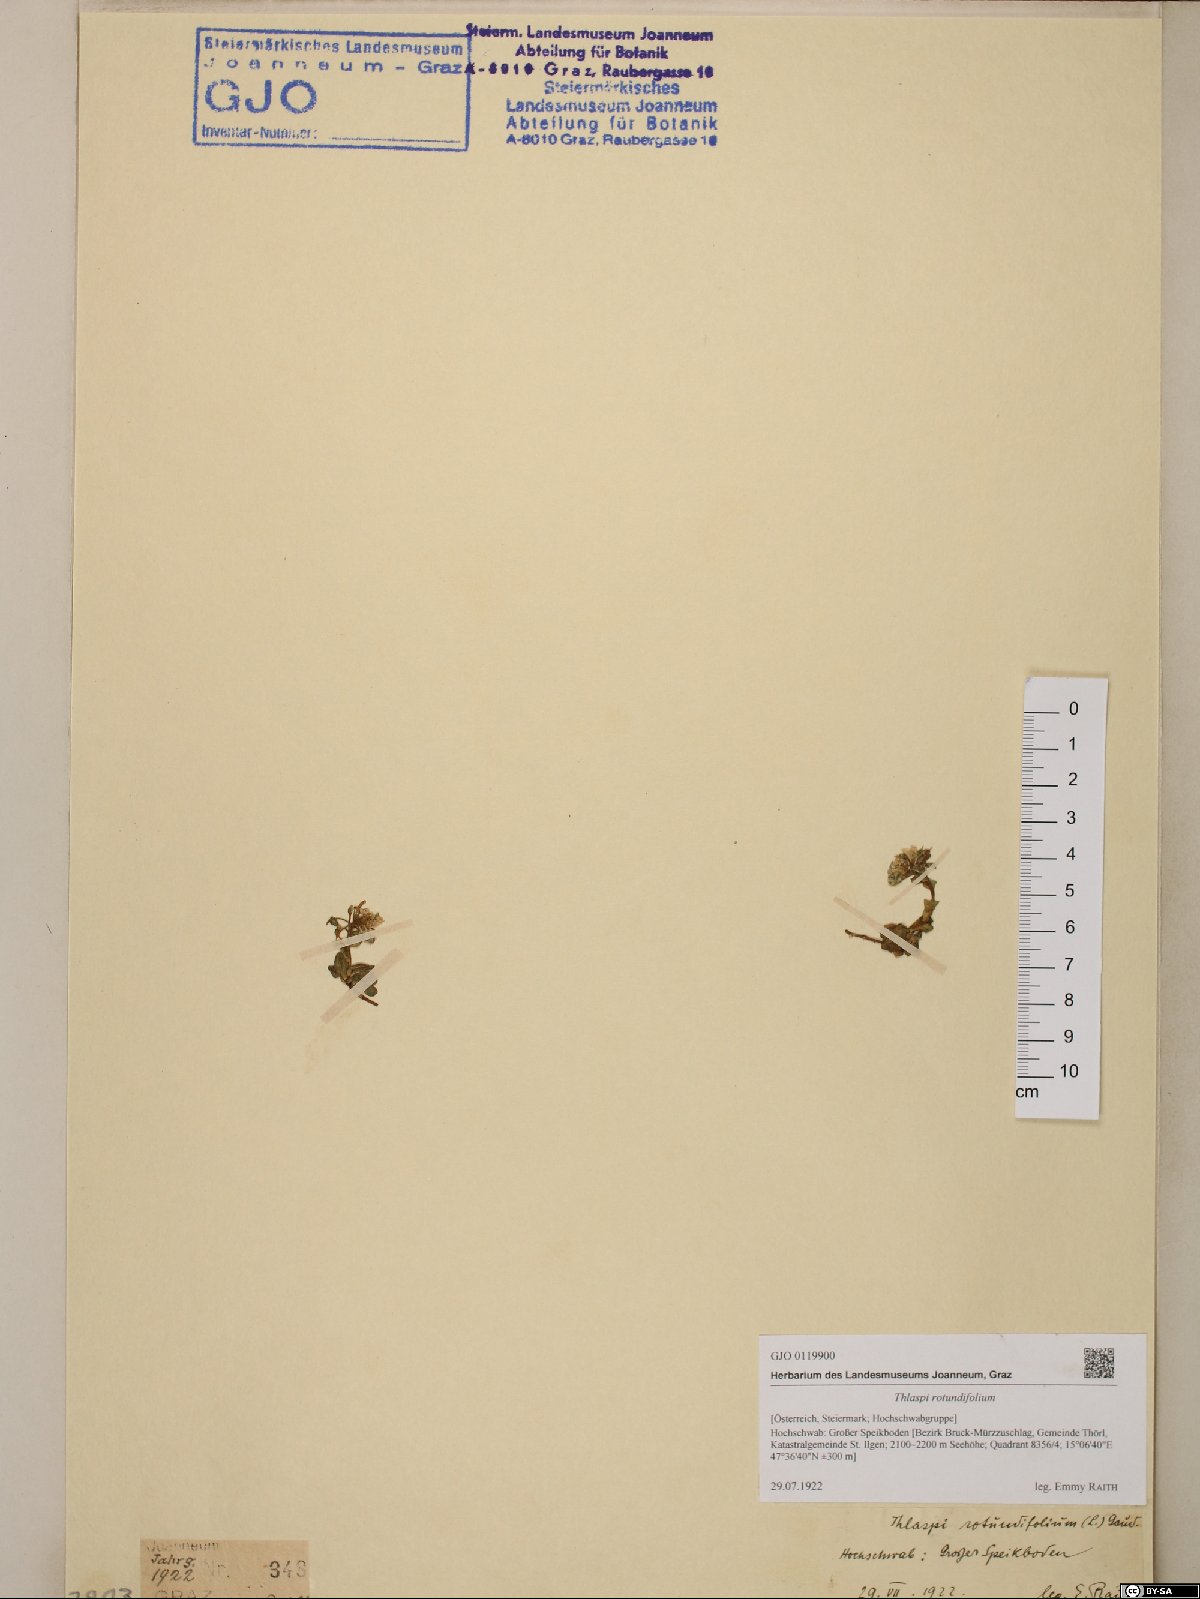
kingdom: Plantae
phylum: Tracheophyta
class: Magnoliopsida
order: Brassicales
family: Brassicaceae
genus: Noccaea
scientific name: Noccaea rotundifolia
